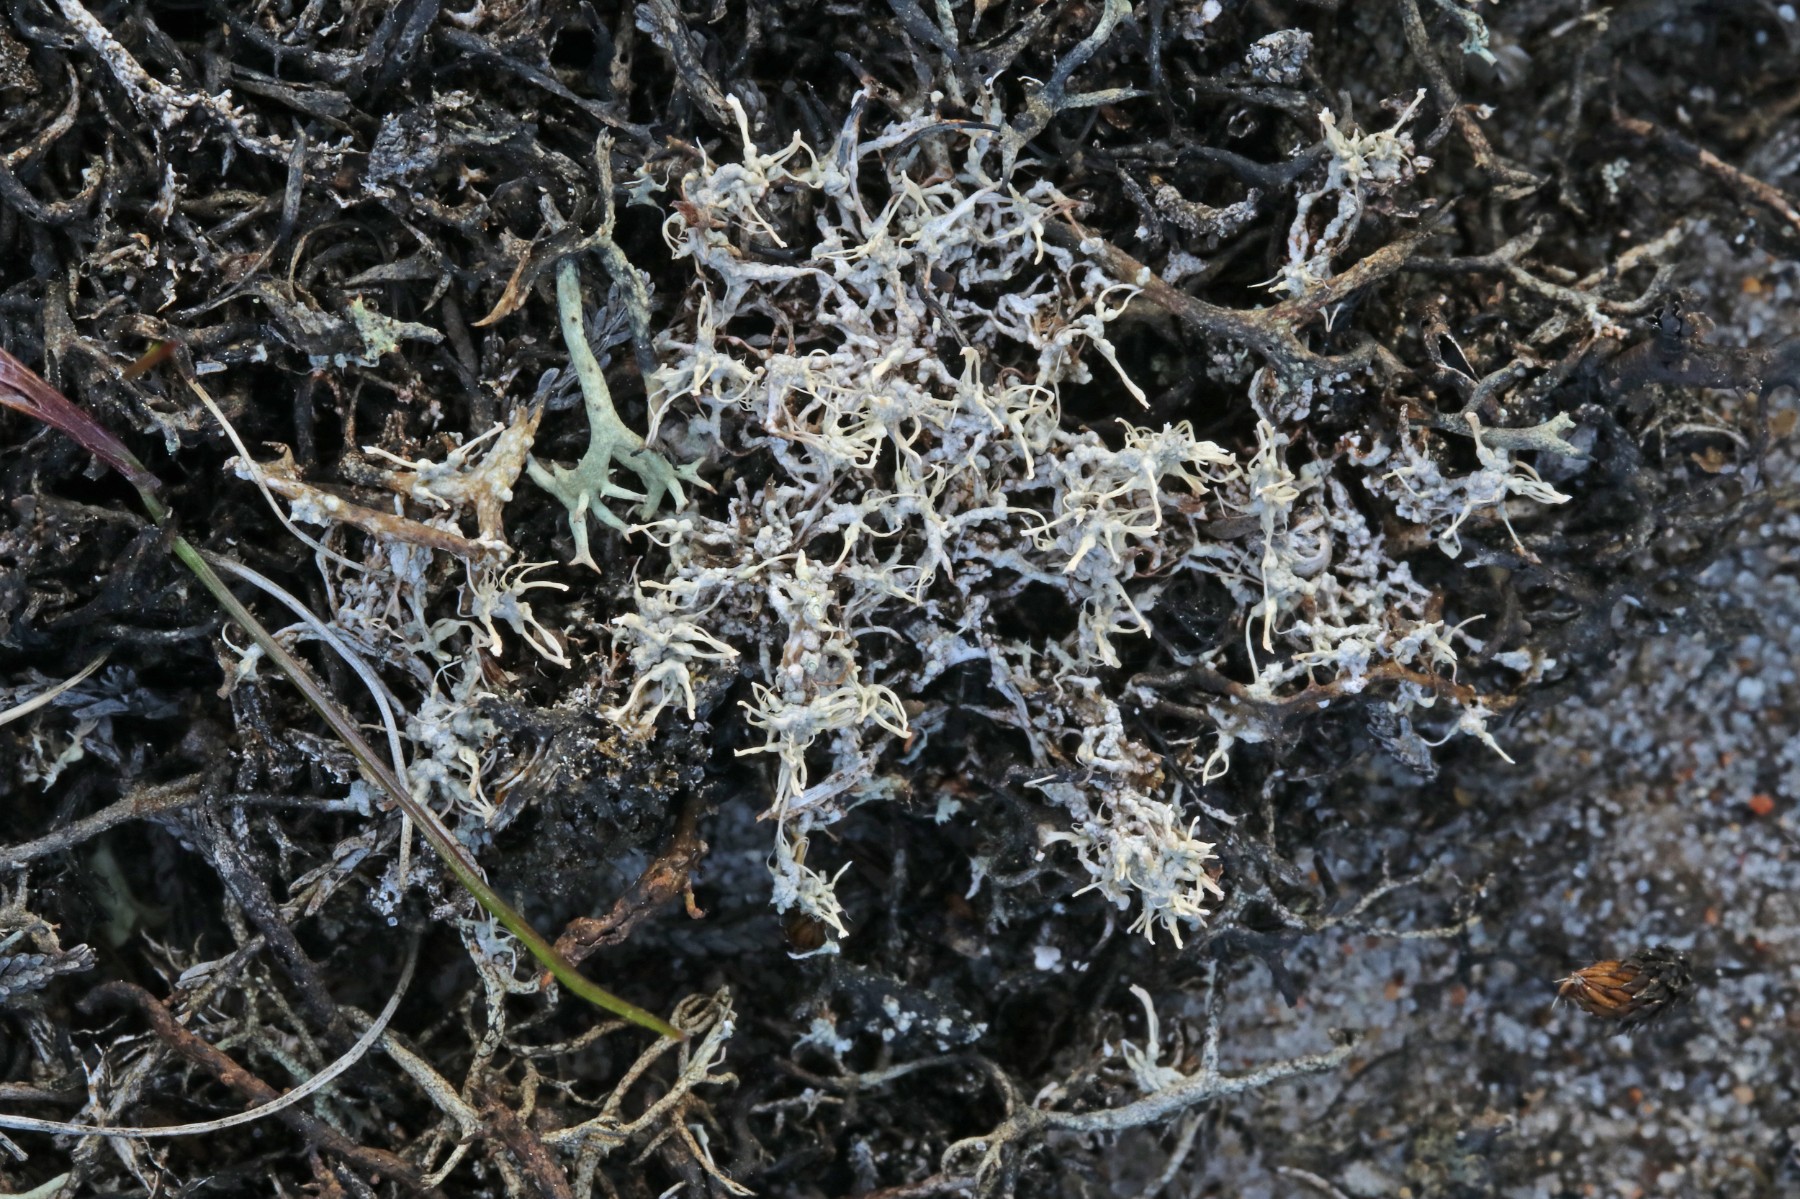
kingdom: Fungi
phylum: Ascomycota
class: Lecanoromycetes
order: Pertusariales
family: Ochrolechiaceae
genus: Ochrolechia
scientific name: Ochrolechia frigida
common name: fjeld-blegskivelav
